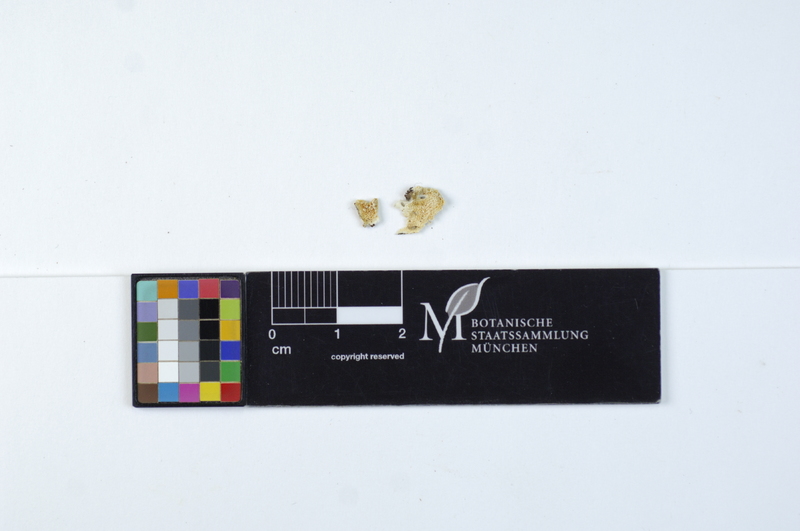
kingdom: Plantae
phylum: Tracheophyta
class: Magnoliopsida
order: Fagales
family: Fagaceae
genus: Quercus
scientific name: Quercus
